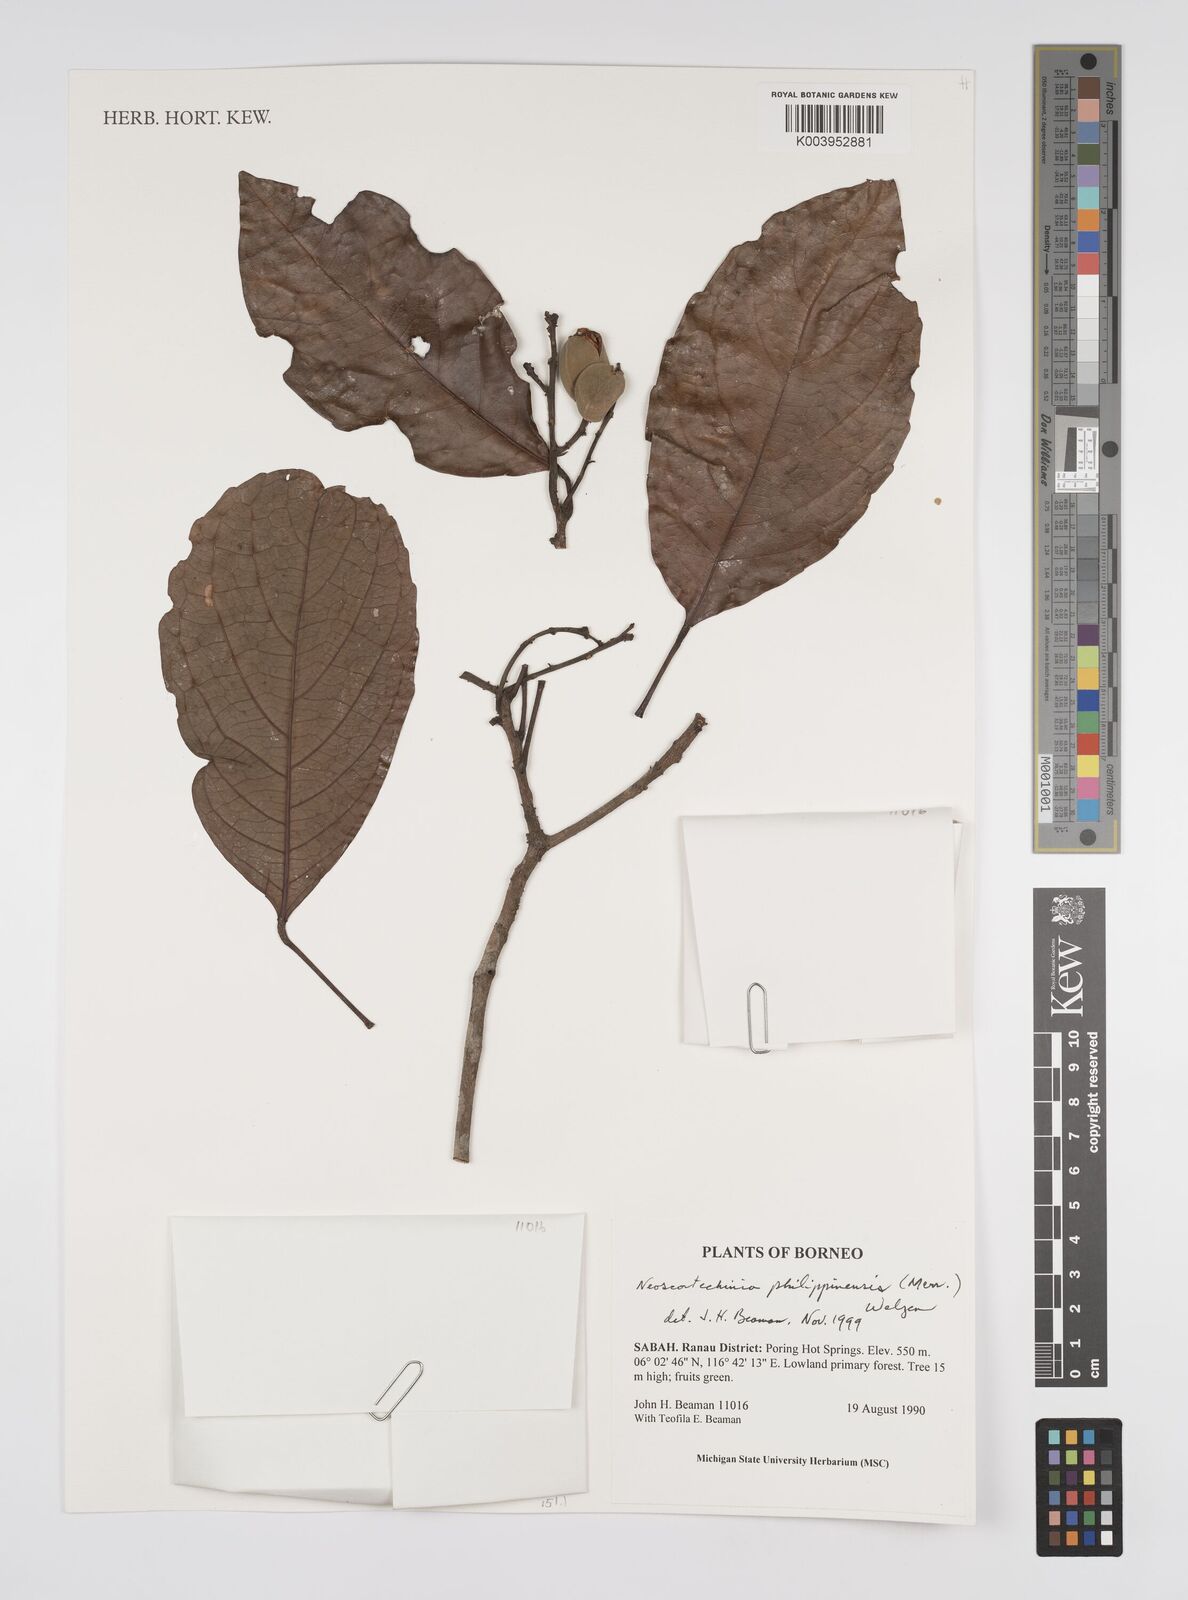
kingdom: Plantae
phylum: Tracheophyta
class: Magnoliopsida
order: Malpighiales
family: Euphorbiaceae
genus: Neoscortechinia
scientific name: Neoscortechinia philippinensis
